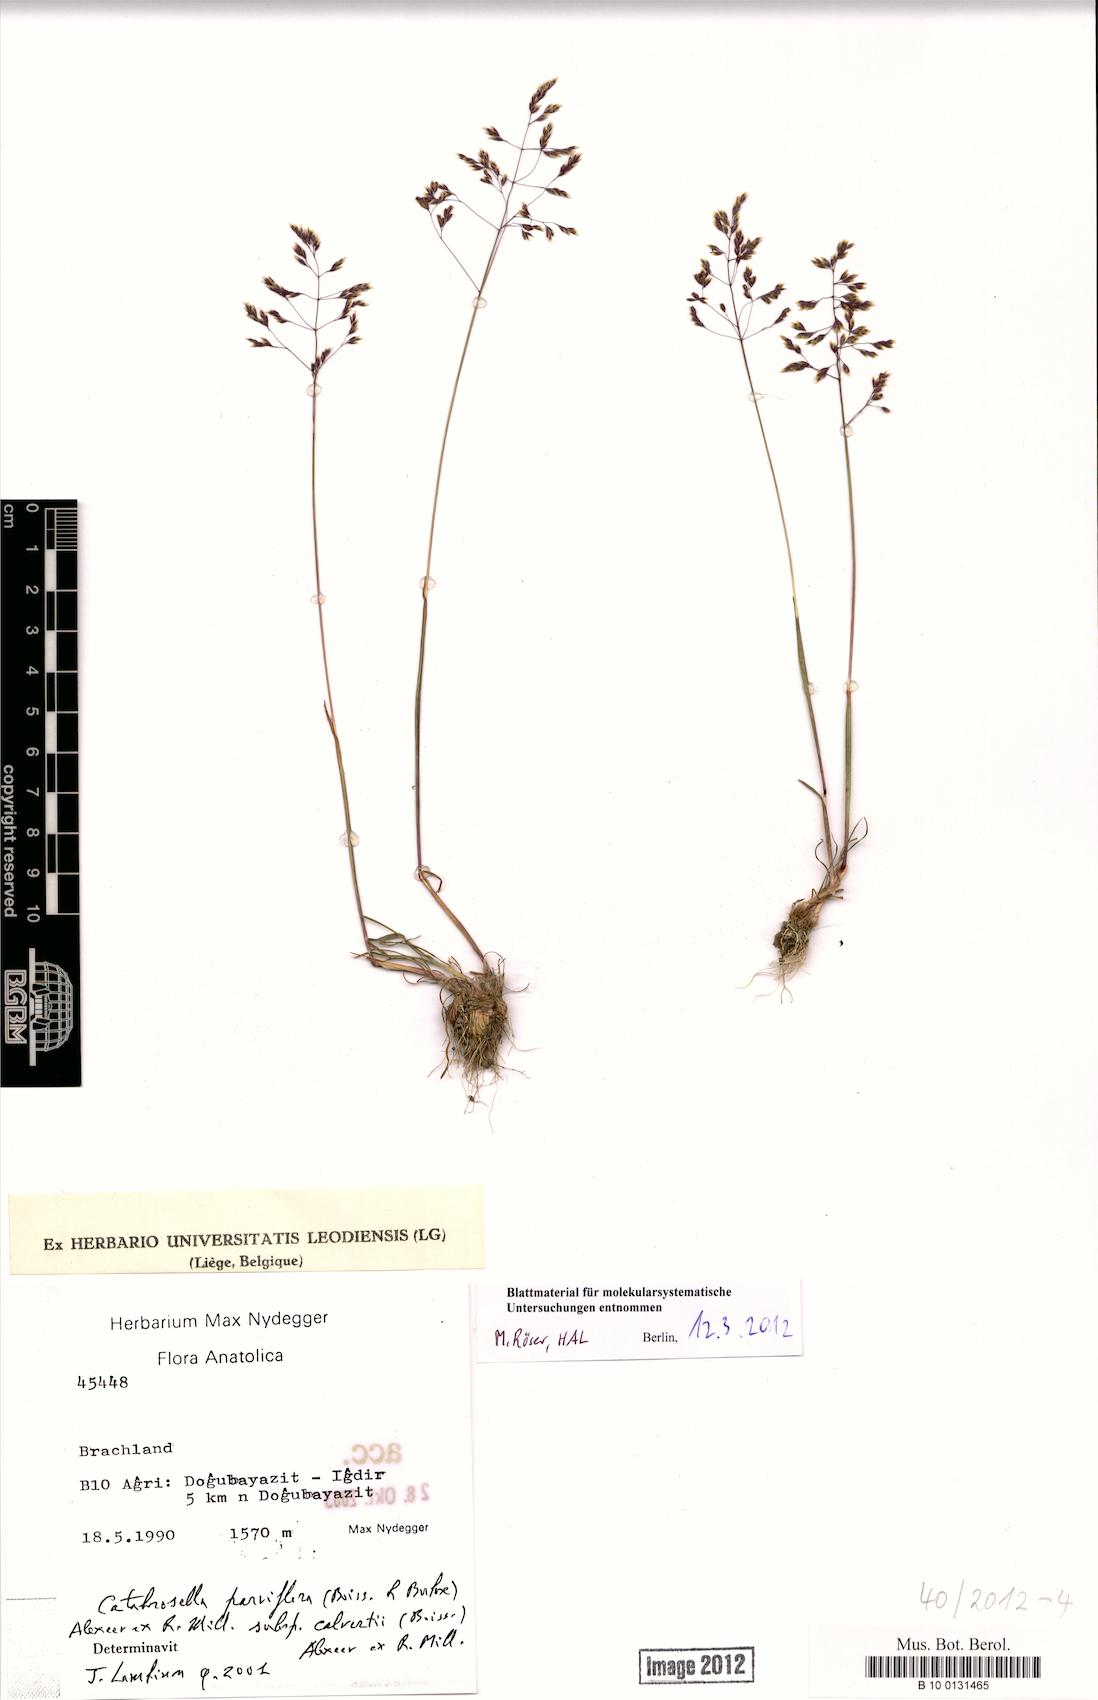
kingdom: Plantae
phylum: Tracheophyta
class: Liliopsida
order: Poales
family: Poaceae
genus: Catabrosella
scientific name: Catabrosella humilis
